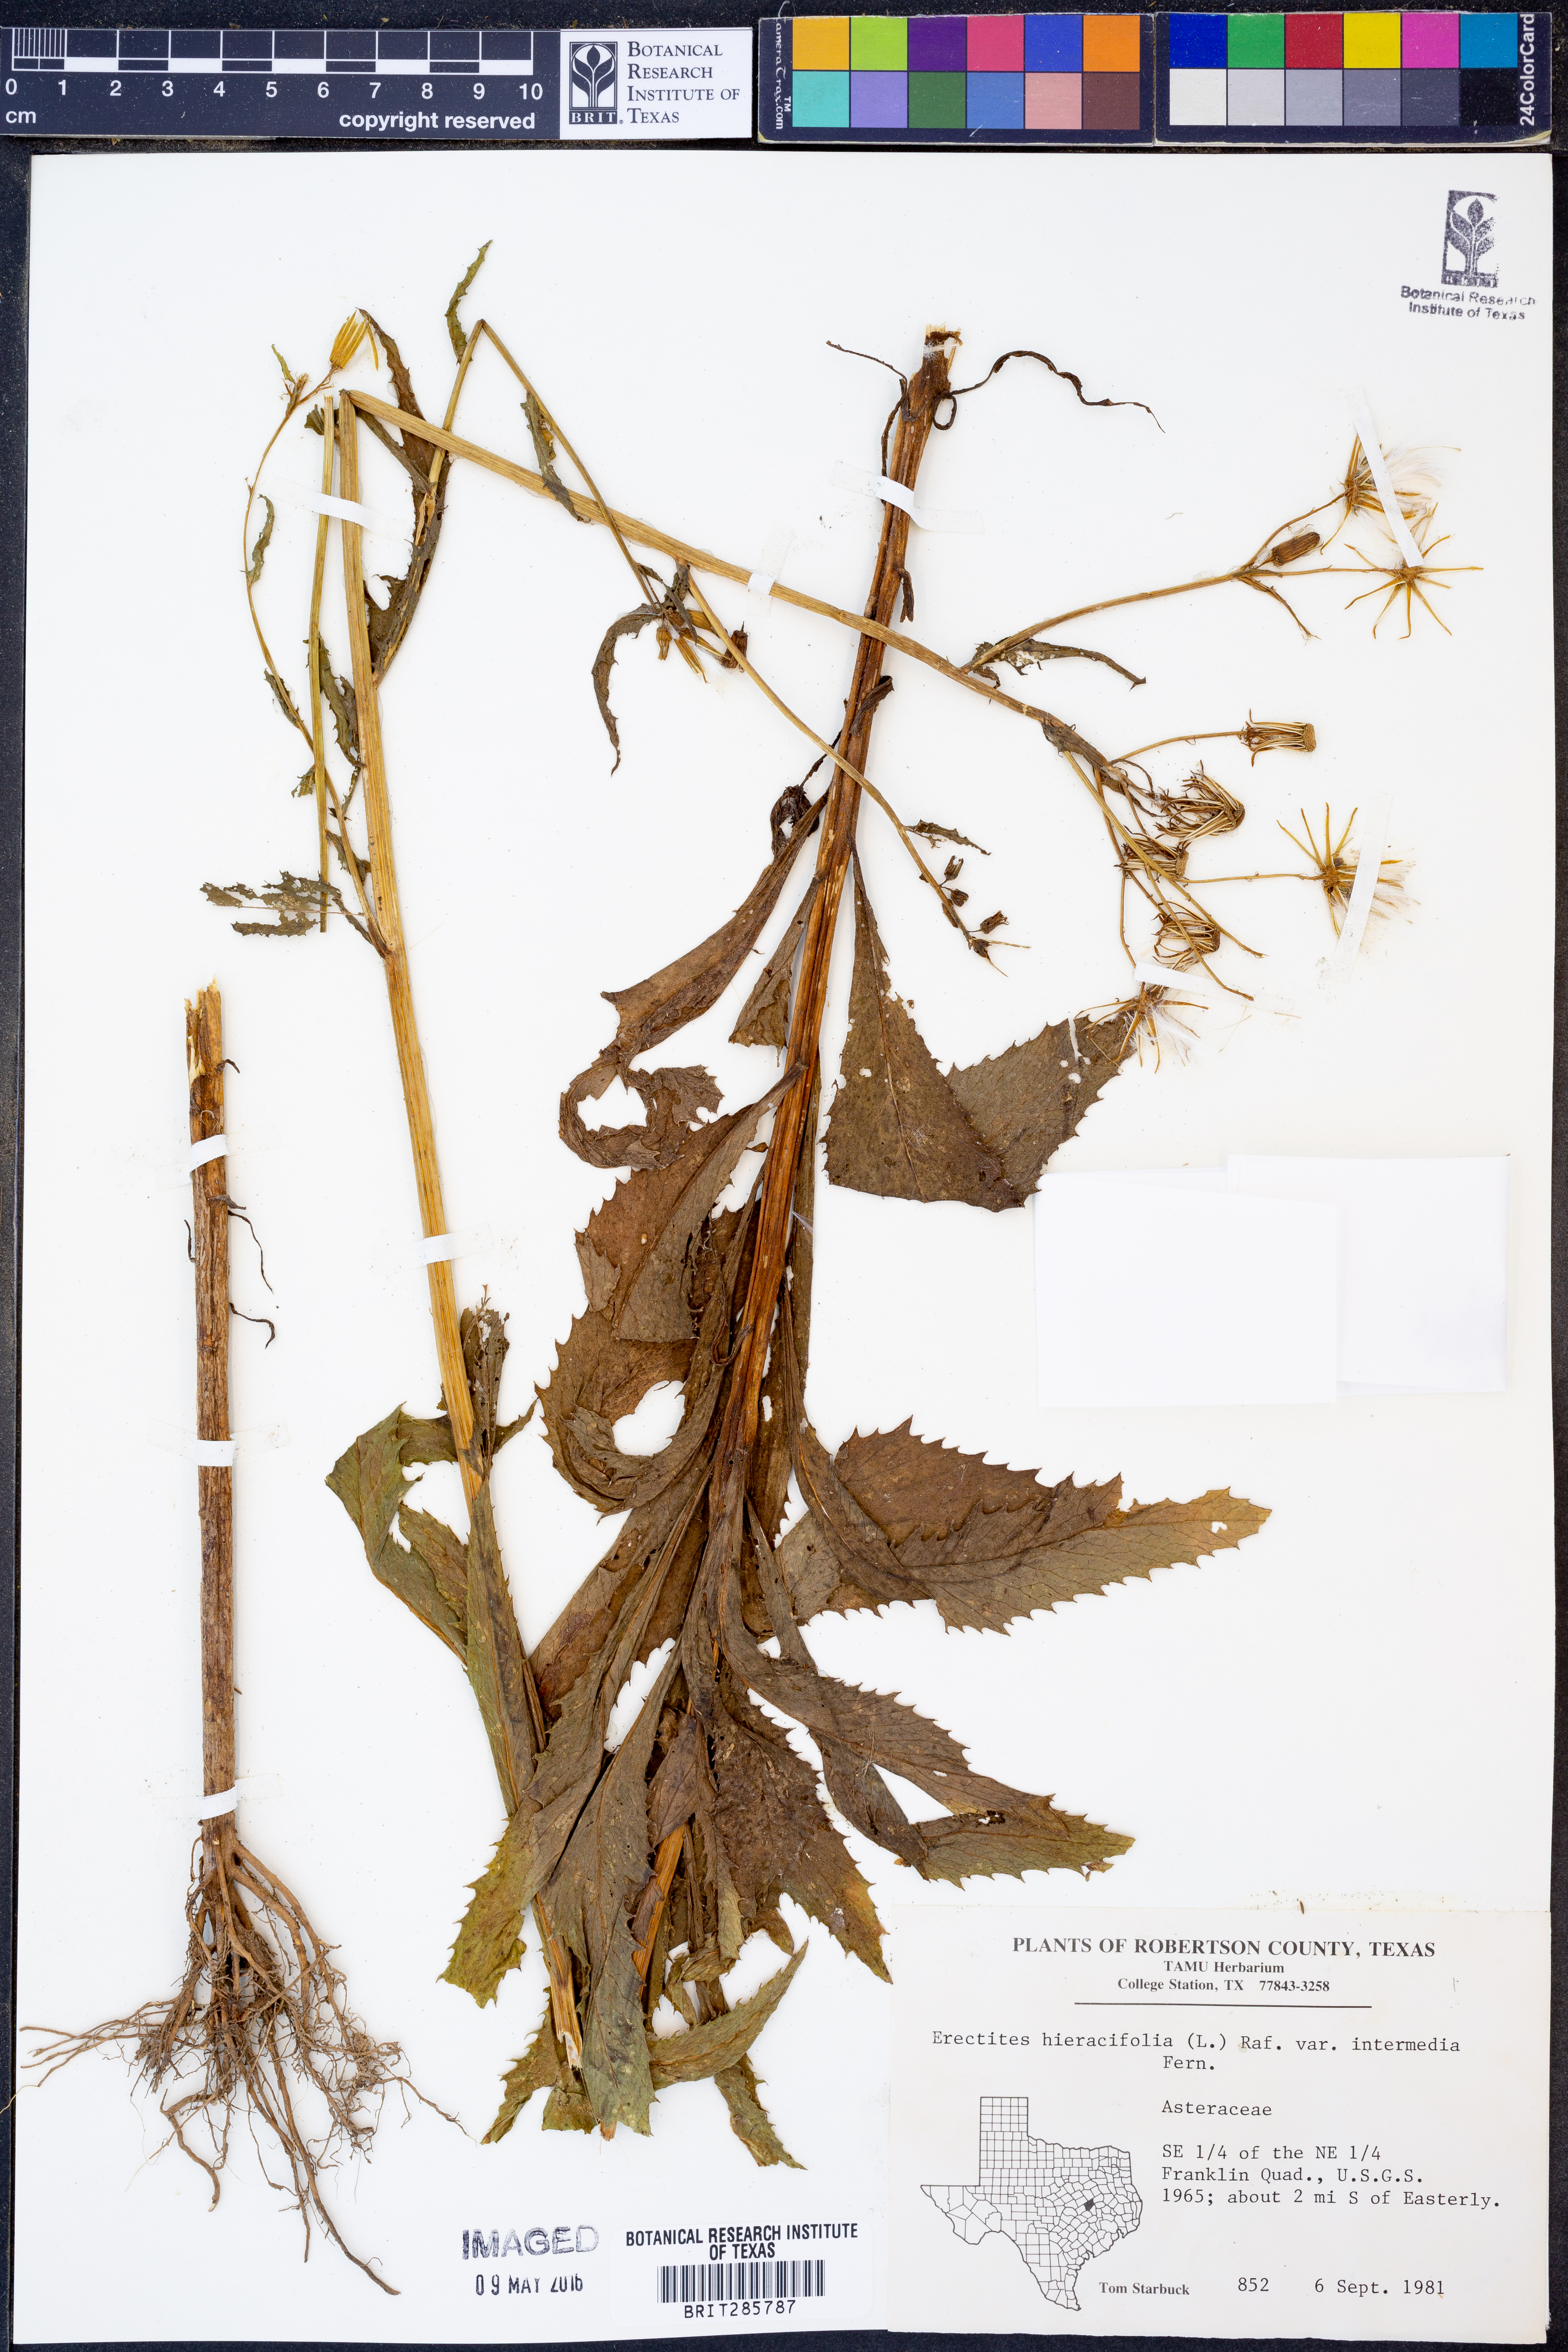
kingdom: Plantae
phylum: Tracheophyta
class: Magnoliopsida
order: Asterales
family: Asteraceae
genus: Erechtites
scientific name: Erechtites hieraciifolius
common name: American burnweed
